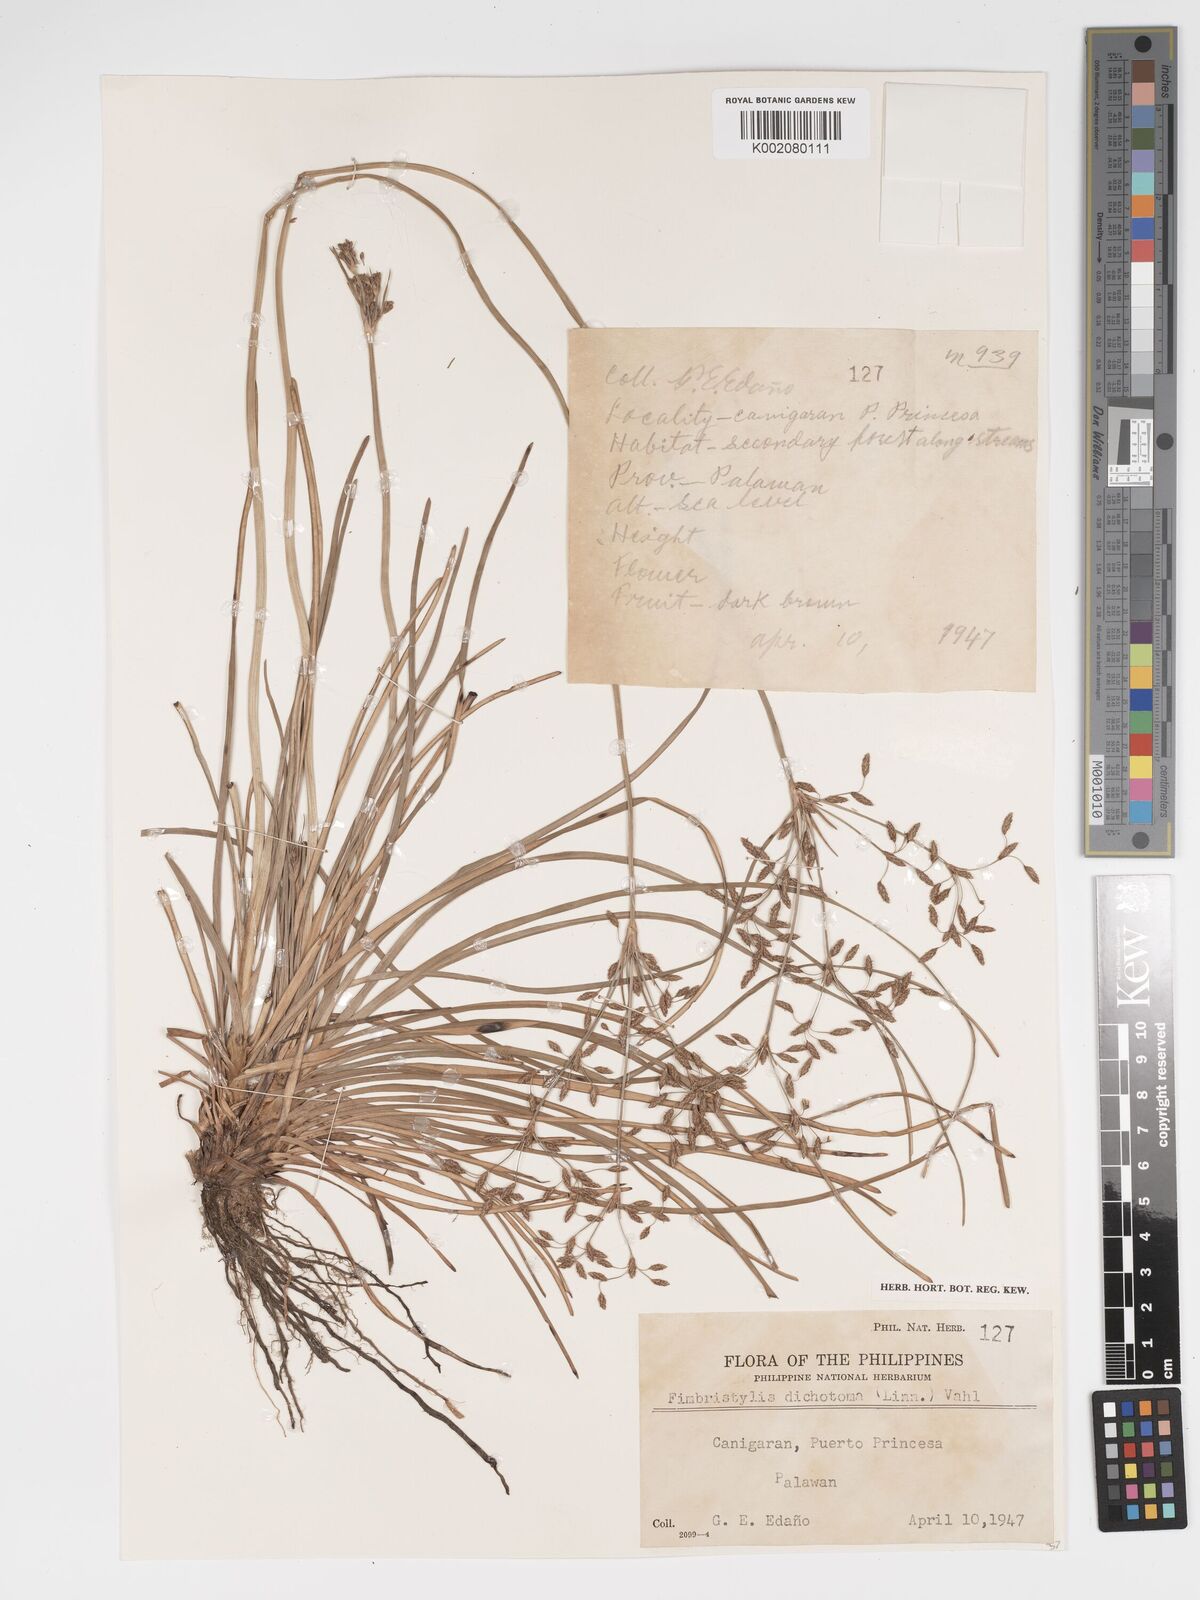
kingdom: Plantae
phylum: Tracheophyta
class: Liliopsida
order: Poales
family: Cyperaceae
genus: Fimbristylis
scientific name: Fimbristylis dichotoma
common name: Forked fimbry
